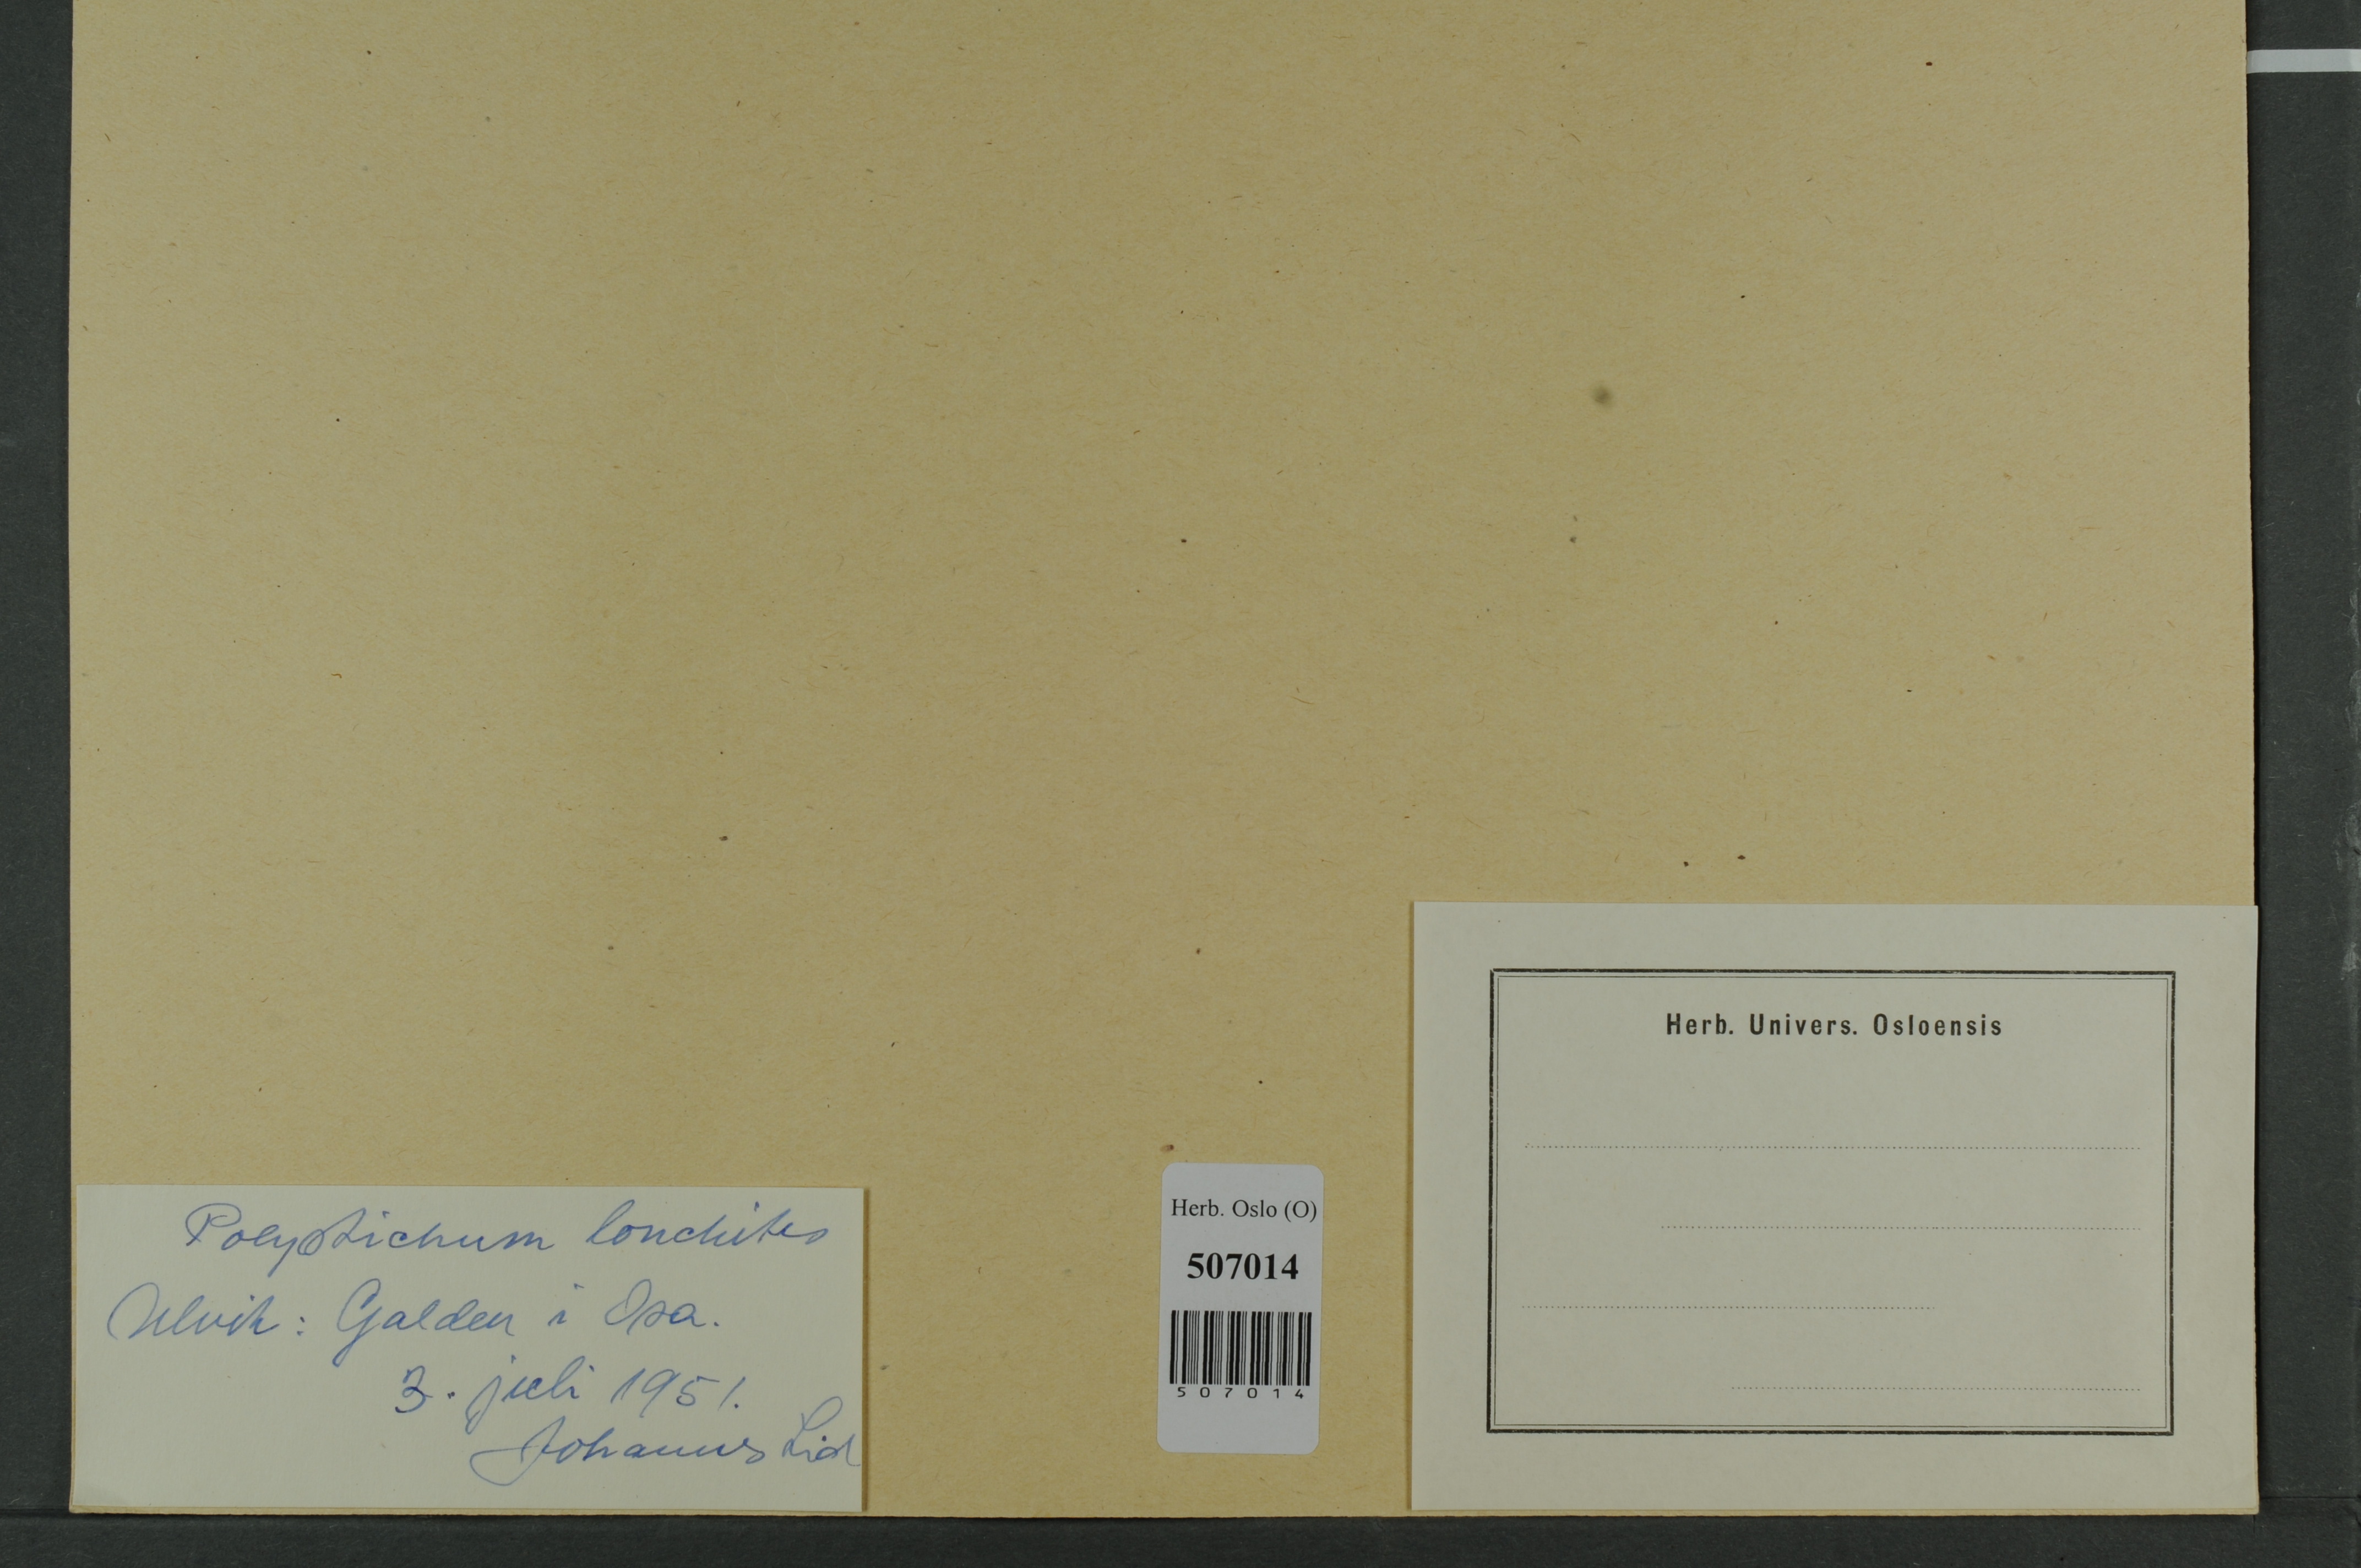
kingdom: Plantae
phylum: Tracheophyta
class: Polypodiopsida
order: Polypodiales
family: Dryopteridaceae
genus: Polystichum
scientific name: Polystichum lonchitis
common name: Holly fern
